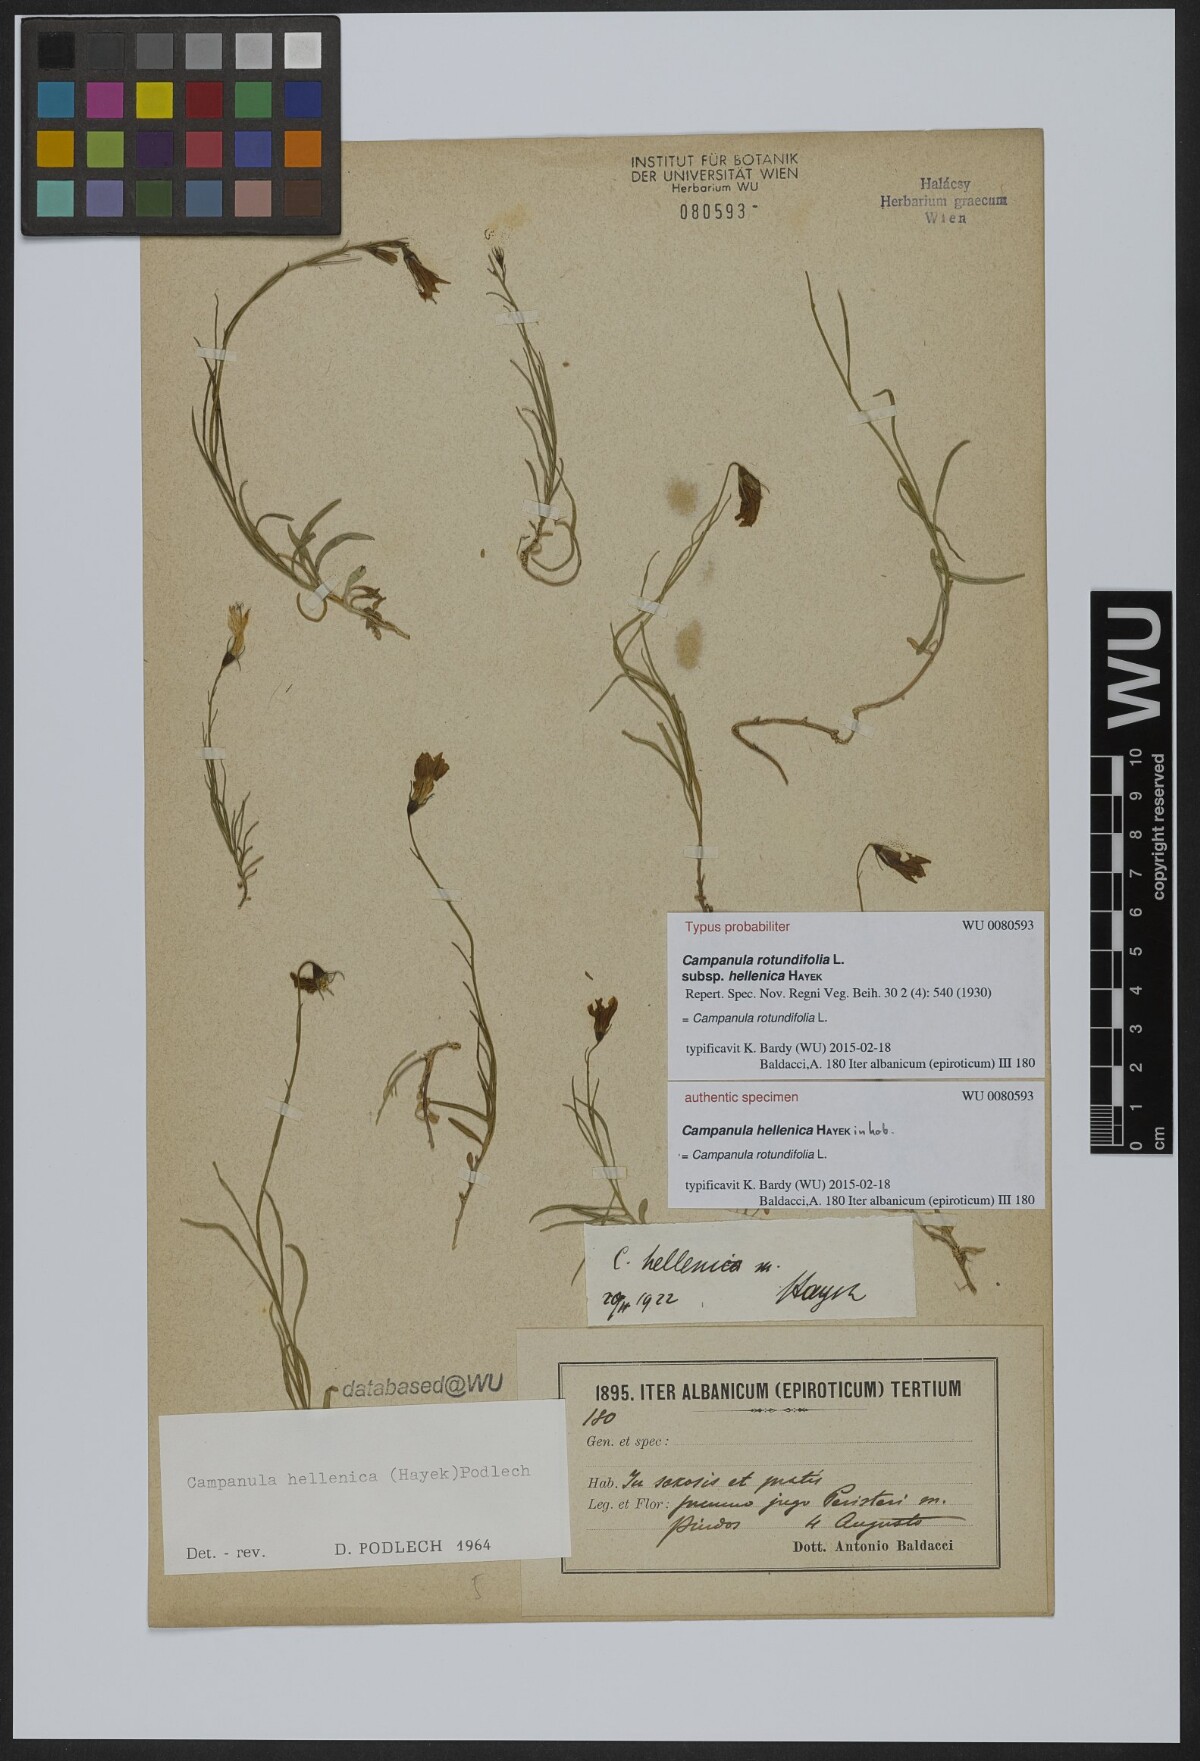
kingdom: Plantae
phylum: Tracheophyta
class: Magnoliopsida
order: Asterales
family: Campanulaceae
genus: Campanula
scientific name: Campanula albanica
